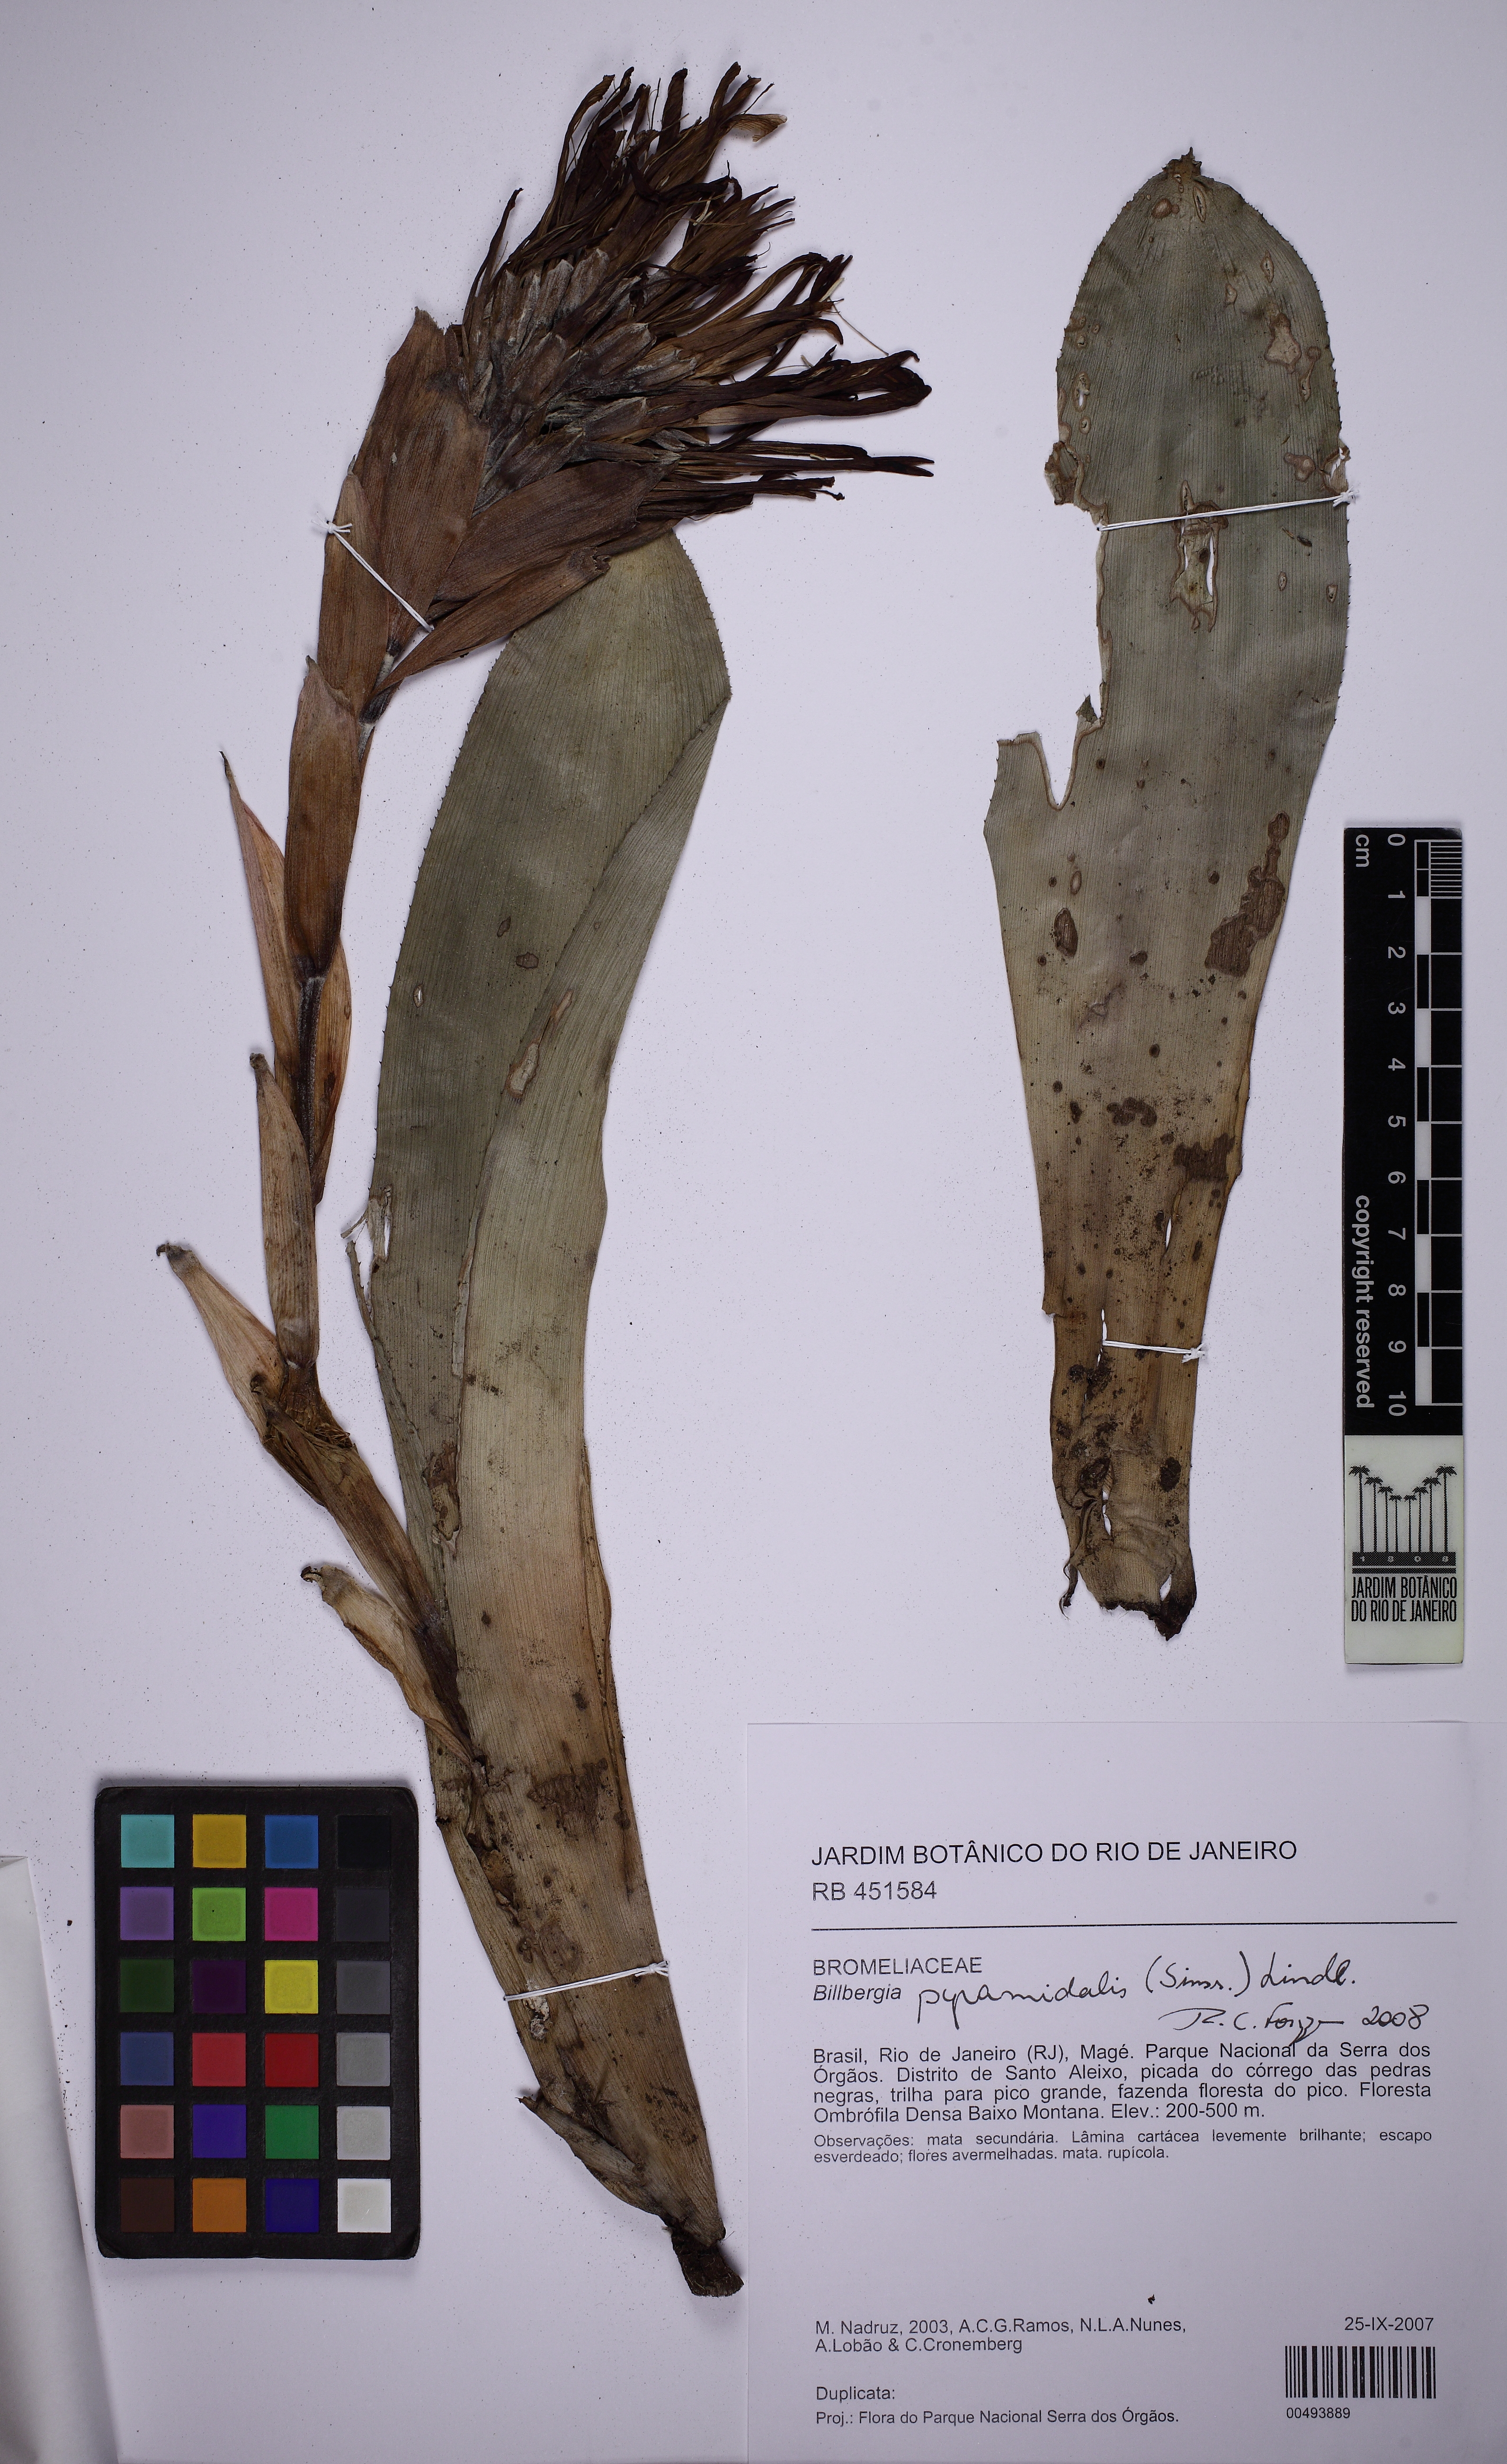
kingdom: Plantae
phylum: Tracheophyta
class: Liliopsida
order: Poales
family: Bromeliaceae
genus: Billbergia
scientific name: Billbergia pyramidalis
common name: Foolproofplant
